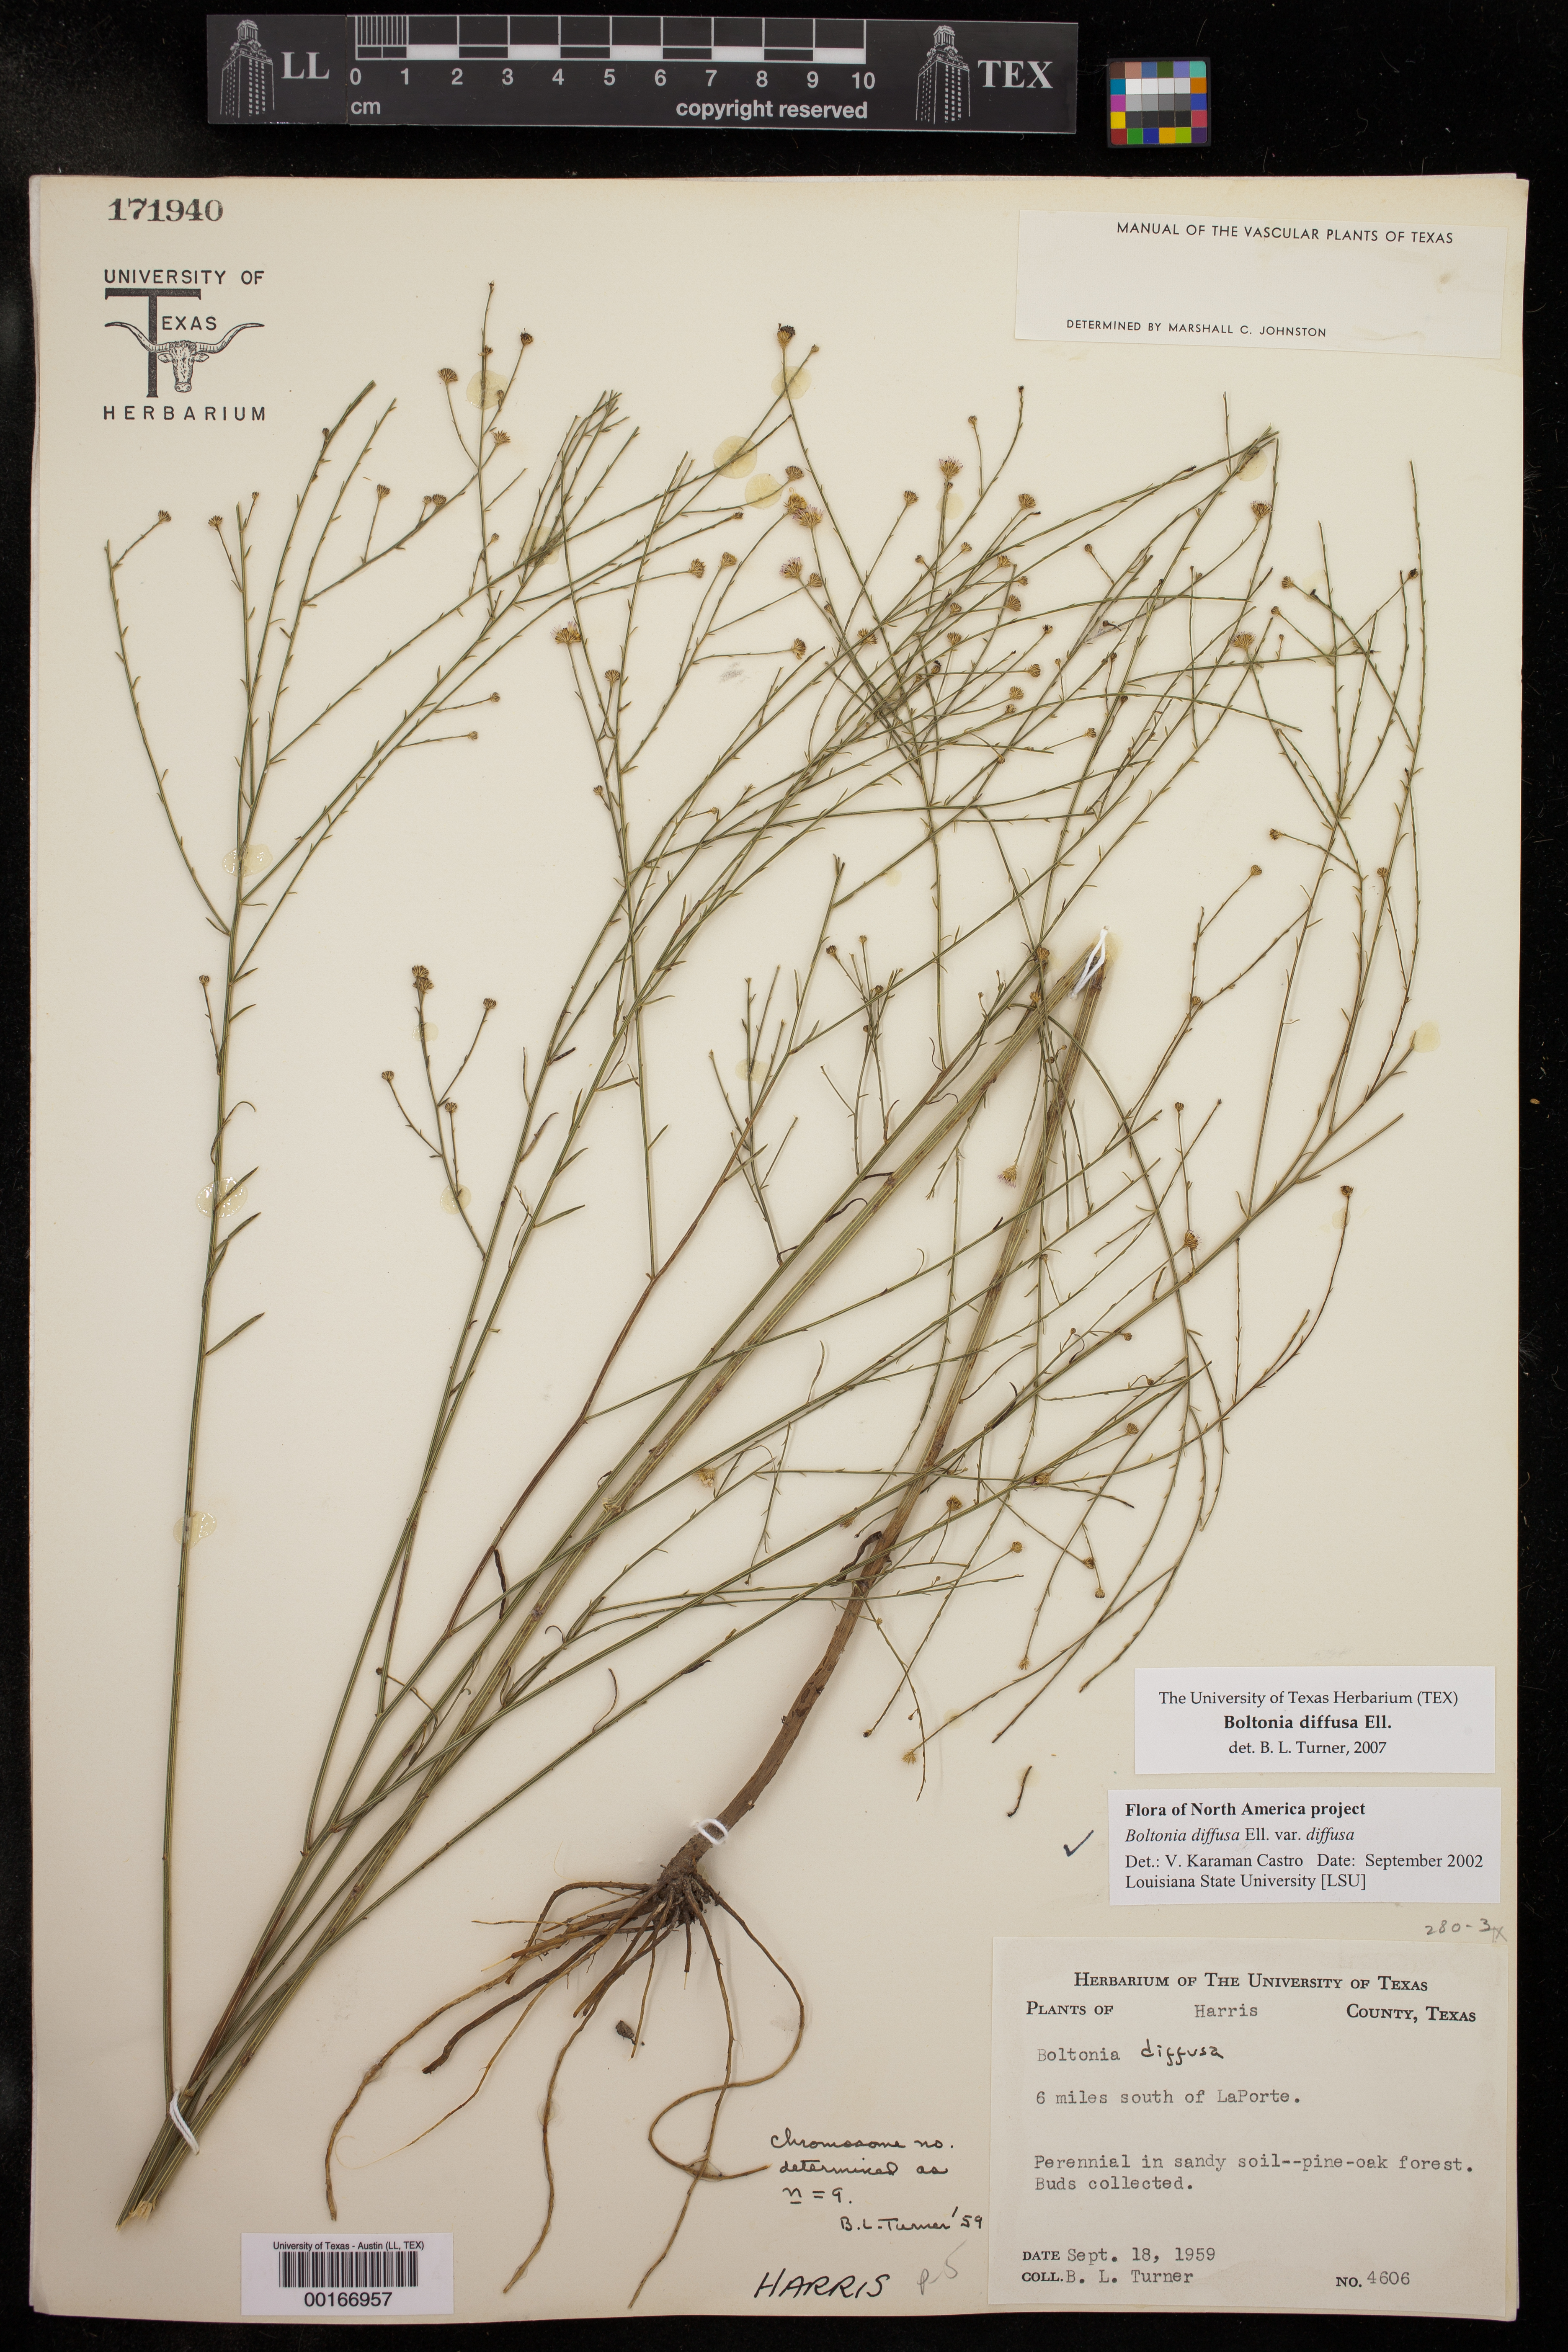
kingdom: Plantae
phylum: Tracheophyta
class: Magnoliopsida
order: Asterales
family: Asteraceae
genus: Boltonia
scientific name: Boltonia diffusa
